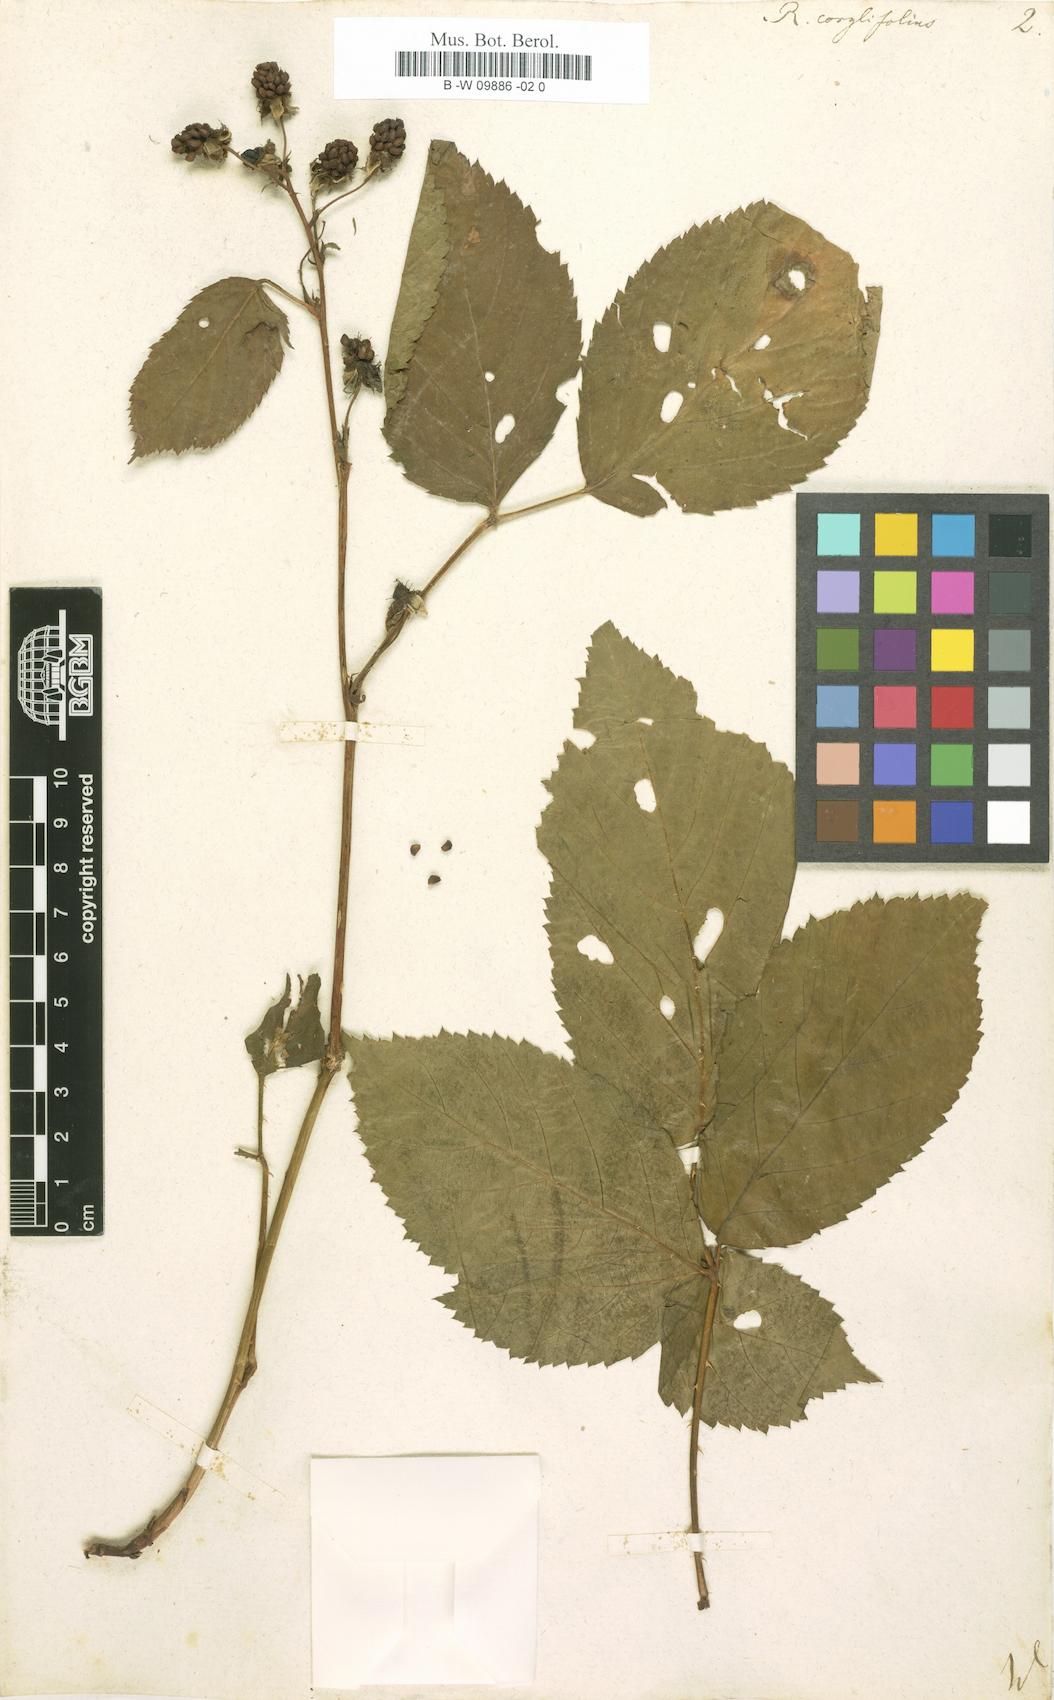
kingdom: Plantae
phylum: Tracheophyta
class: Magnoliopsida
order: Rosales
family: Rosaceae
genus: Rubus
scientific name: Rubus
